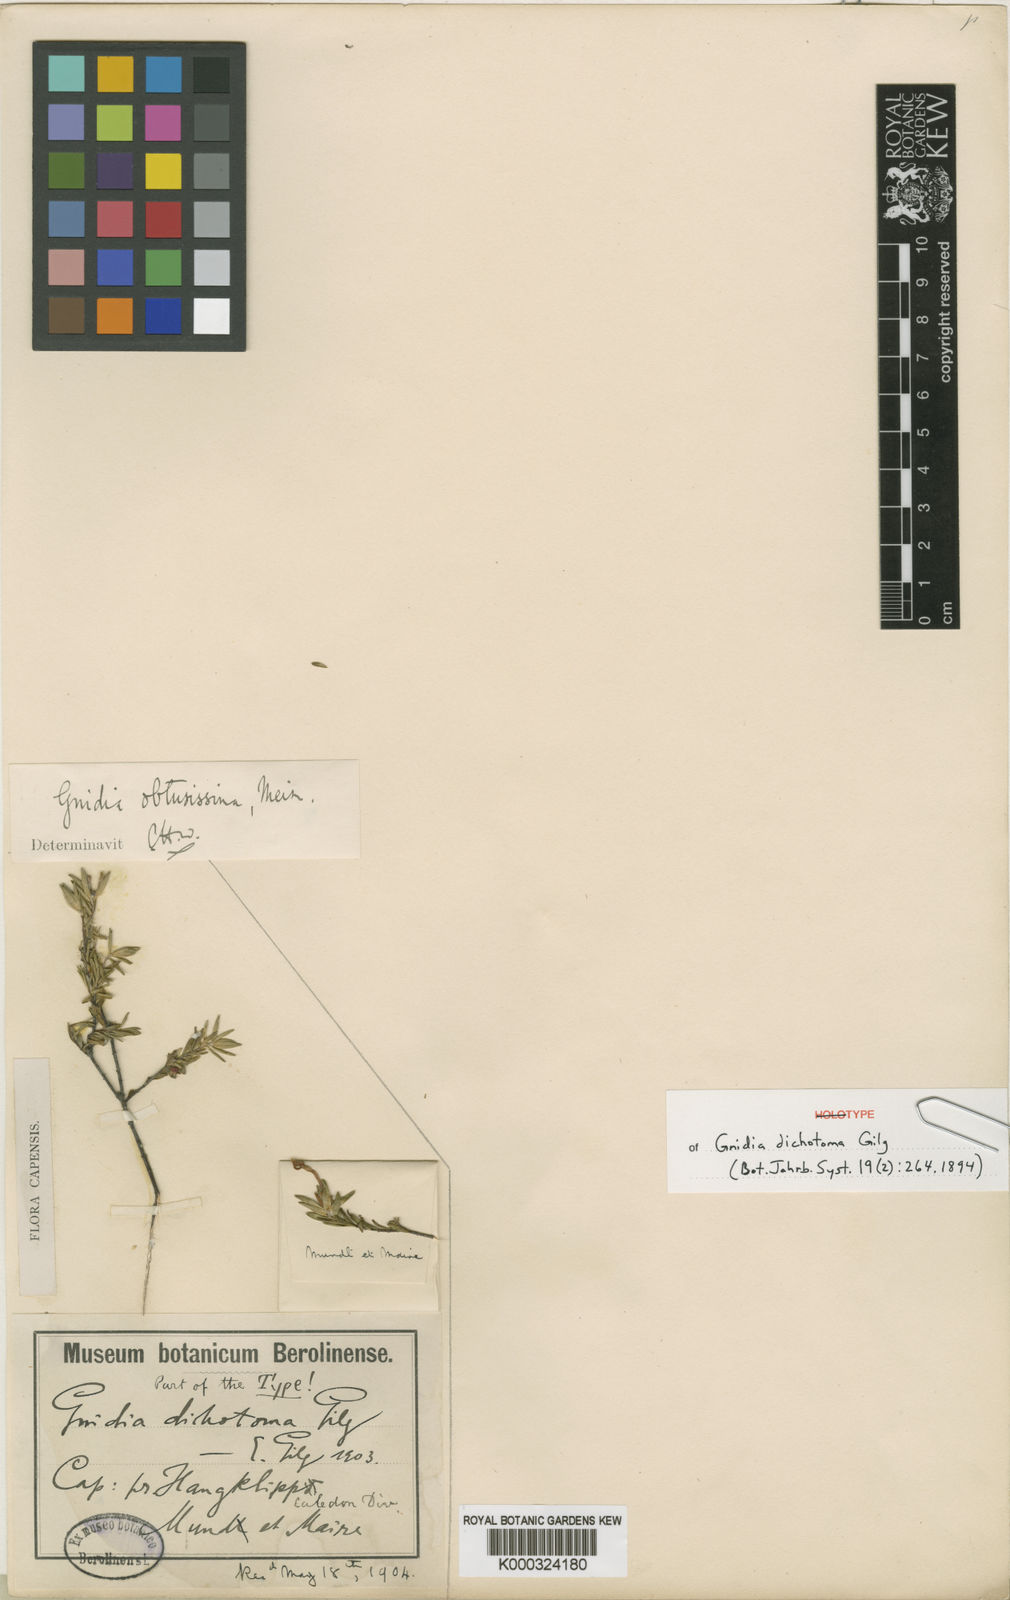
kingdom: Plantae
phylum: Tracheophyta
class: Magnoliopsida
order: Malvales
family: Thymelaeaceae
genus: Gnidia
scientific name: Gnidia obtusissima
